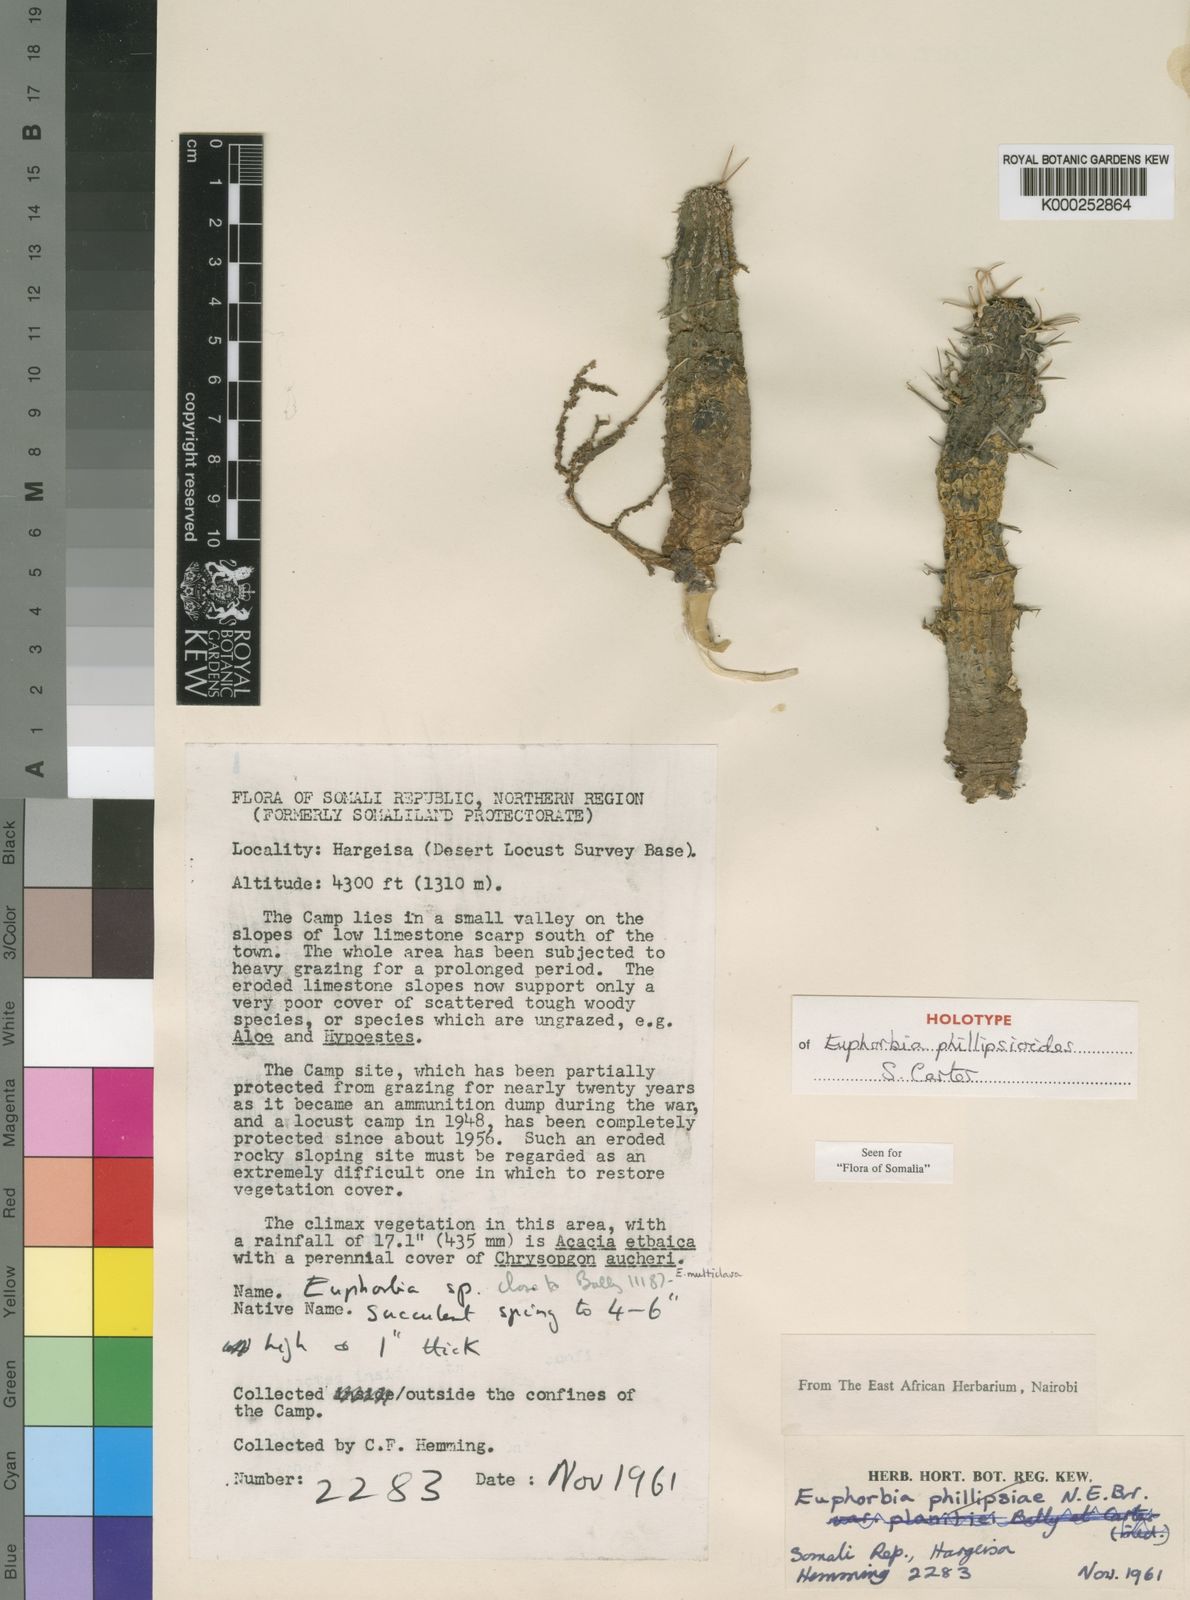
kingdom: Plantae
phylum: Tracheophyta
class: Magnoliopsida
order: Malpighiales
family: Euphorbiaceae
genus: Euphorbia
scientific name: Euphorbia phillipsioides
